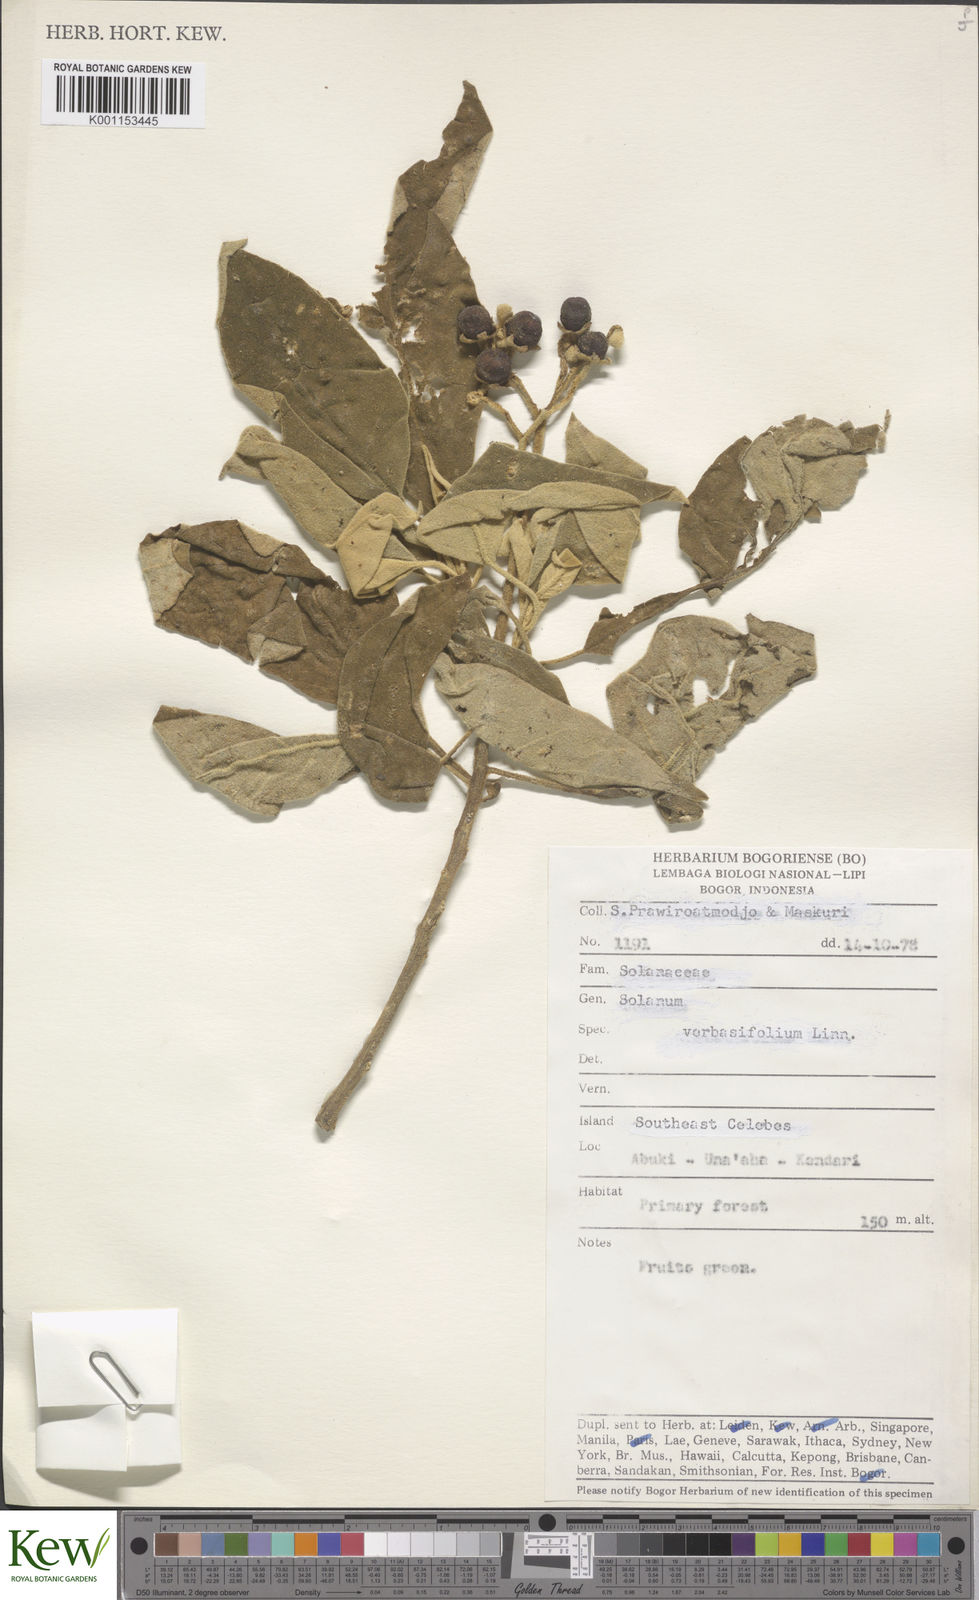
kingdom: Plantae
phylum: Tracheophyta
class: Magnoliopsida
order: Solanales
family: Solanaceae
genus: Solanum
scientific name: Solanum erianthum
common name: Tobacco-tree
